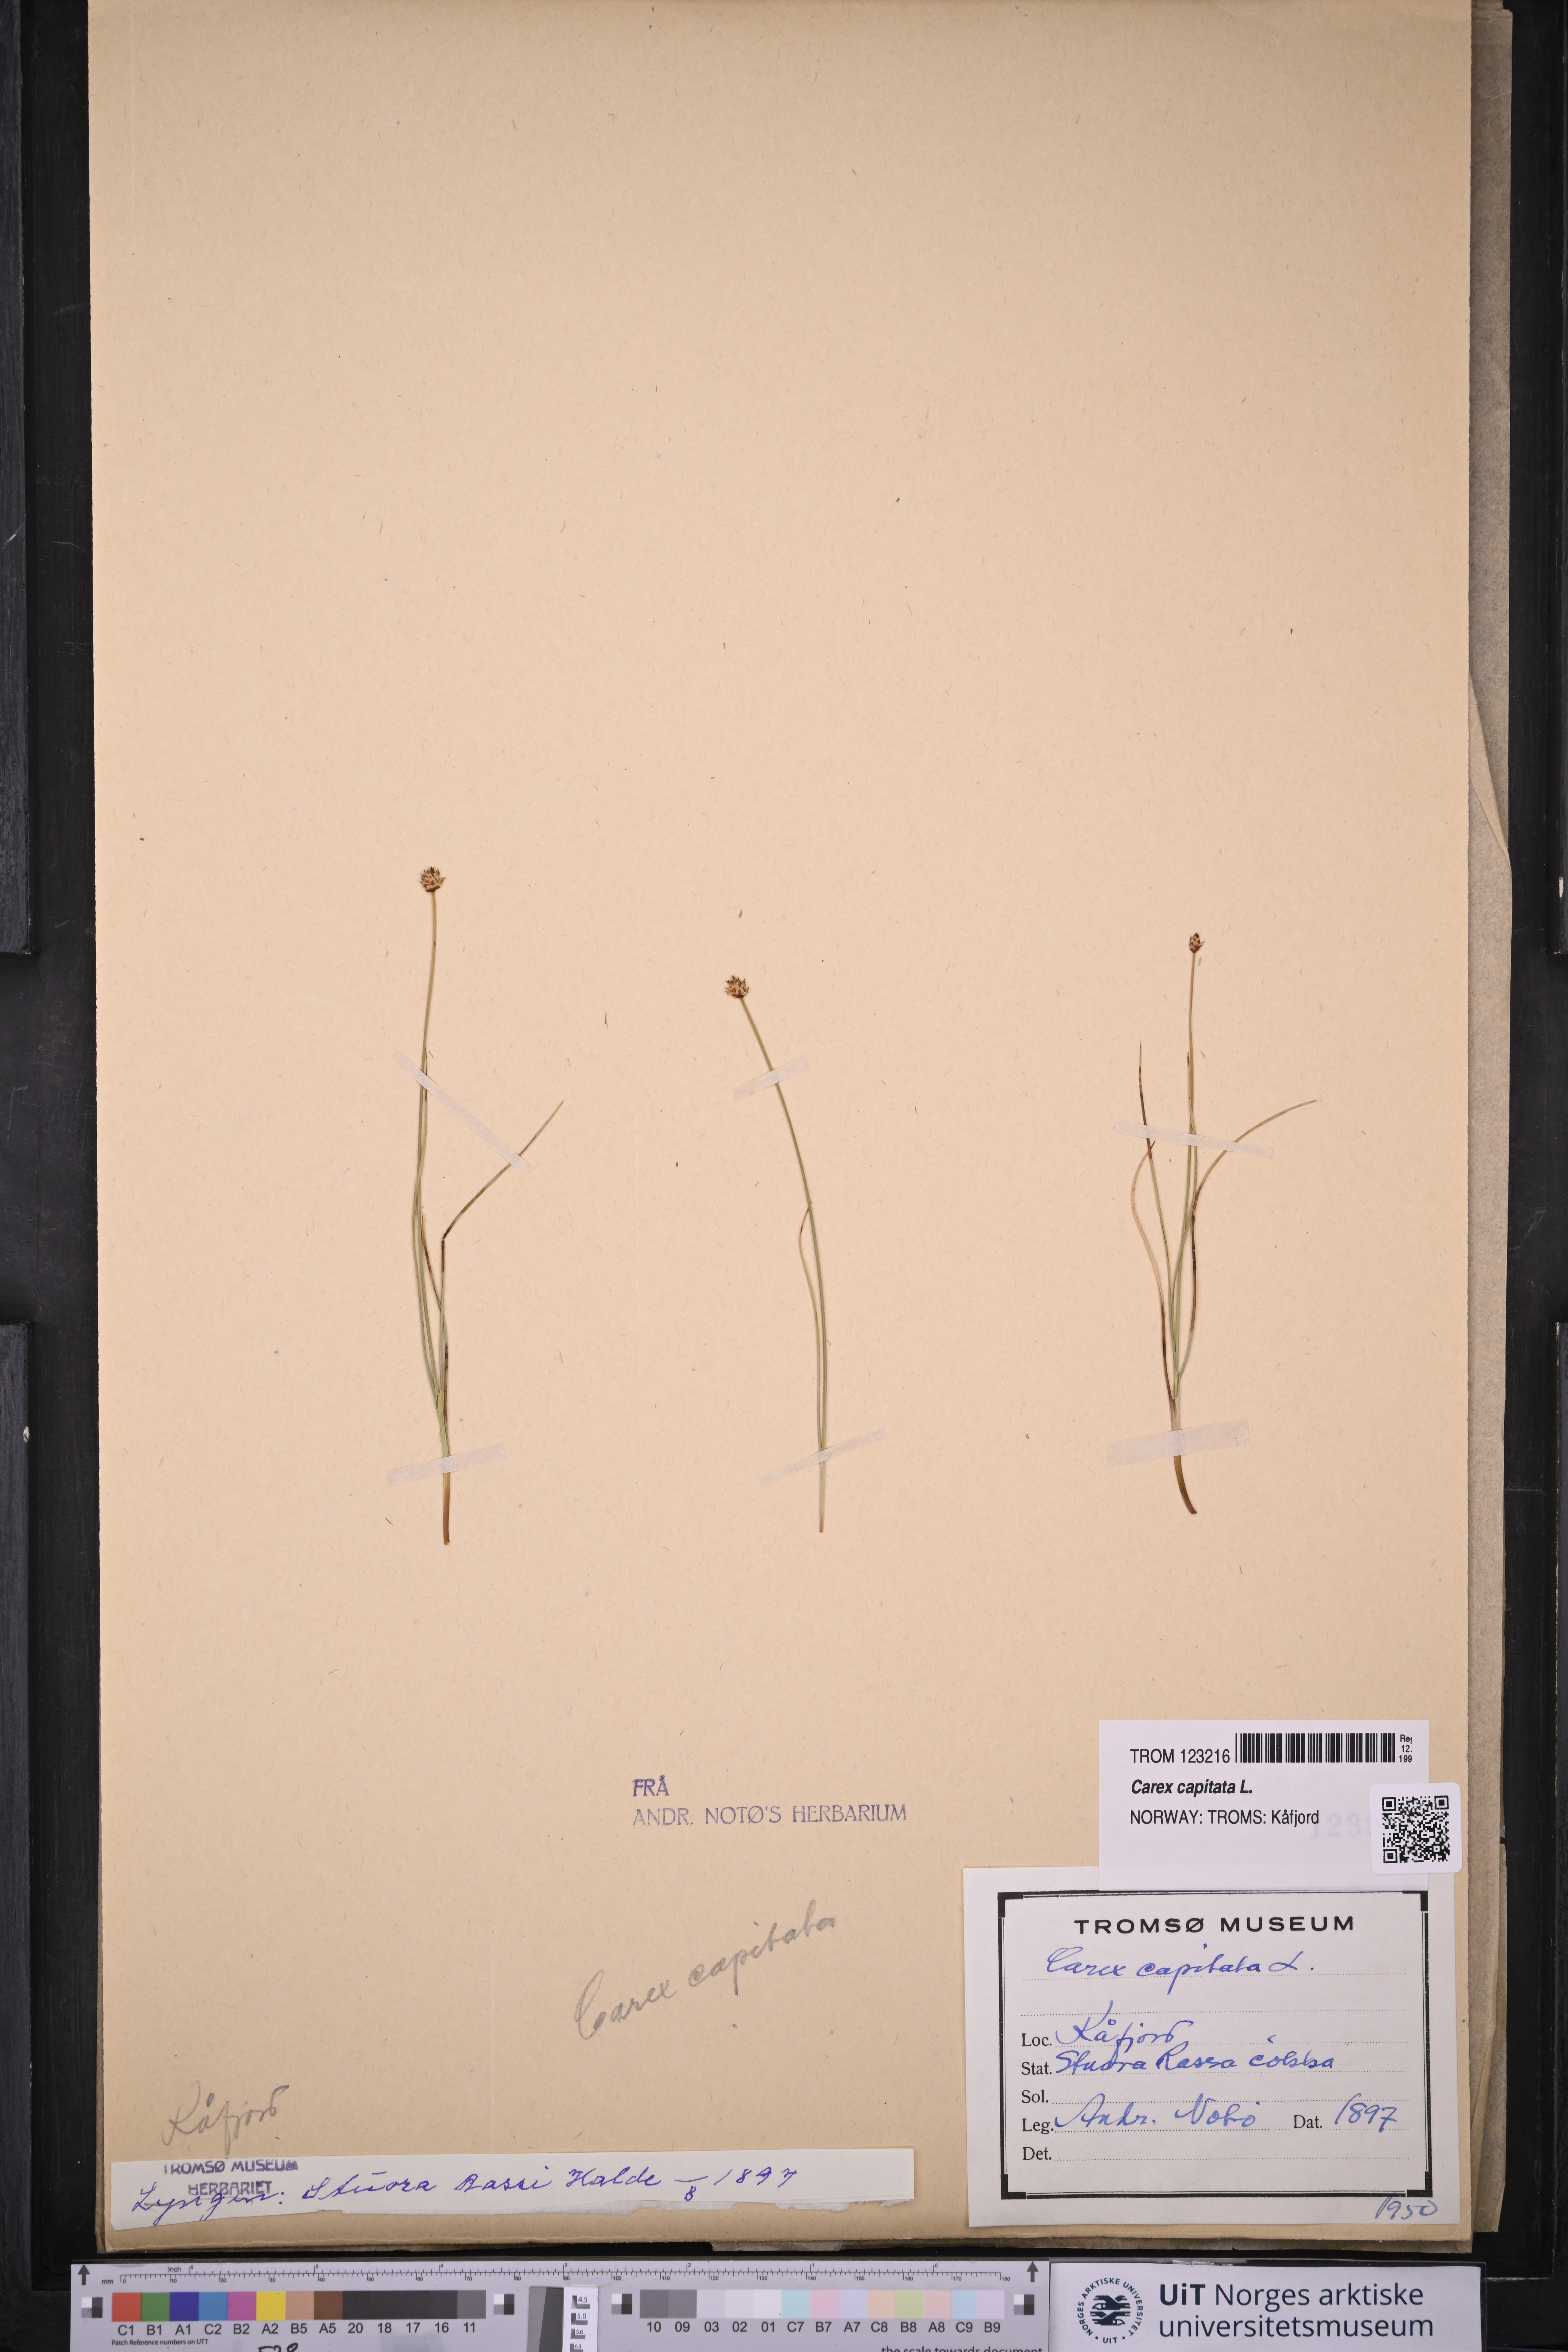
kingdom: Plantae
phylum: Tracheophyta
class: Liliopsida
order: Poales
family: Cyperaceae
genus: Carex
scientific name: Carex capitata
